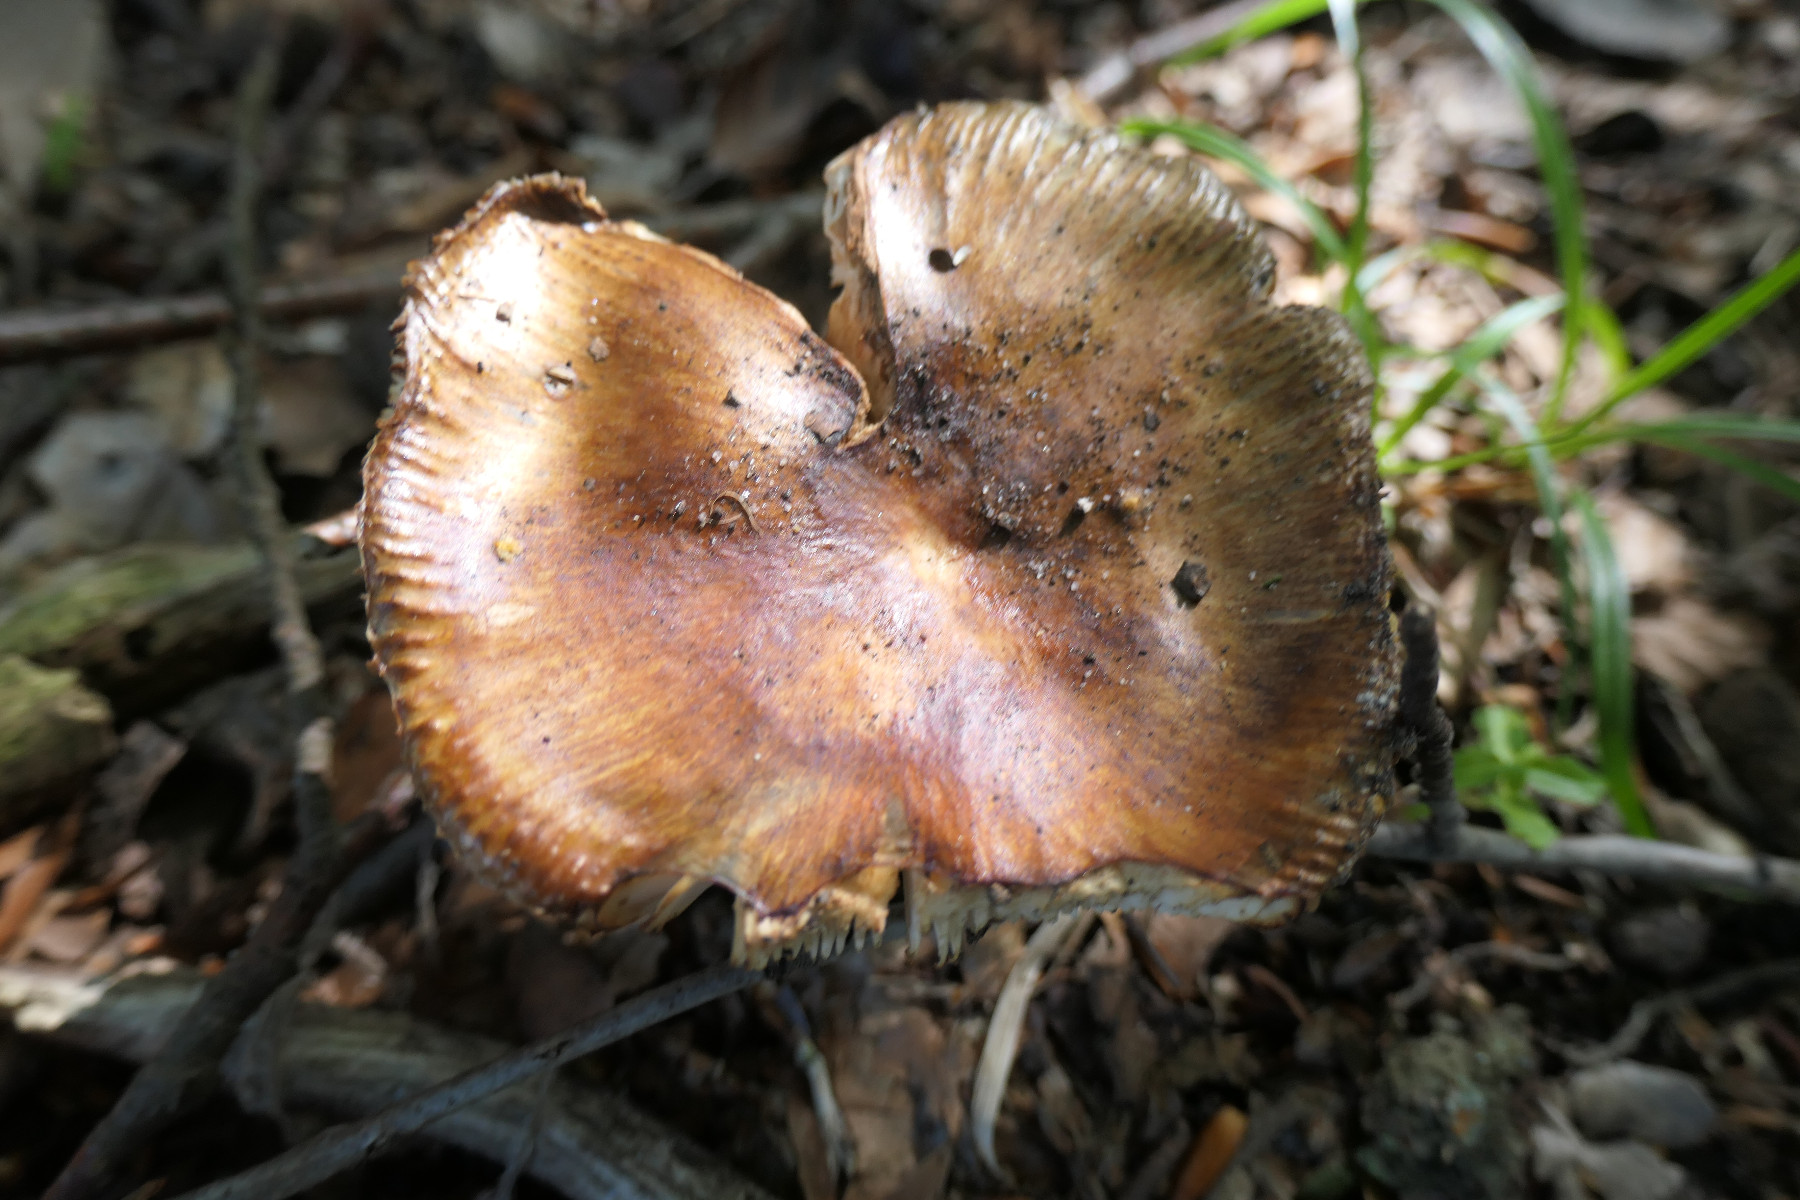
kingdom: Fungi
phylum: Basidiomycota
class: Agaricomycetes
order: Russulales
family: Russulaceae
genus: Russula
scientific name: Russula grata
